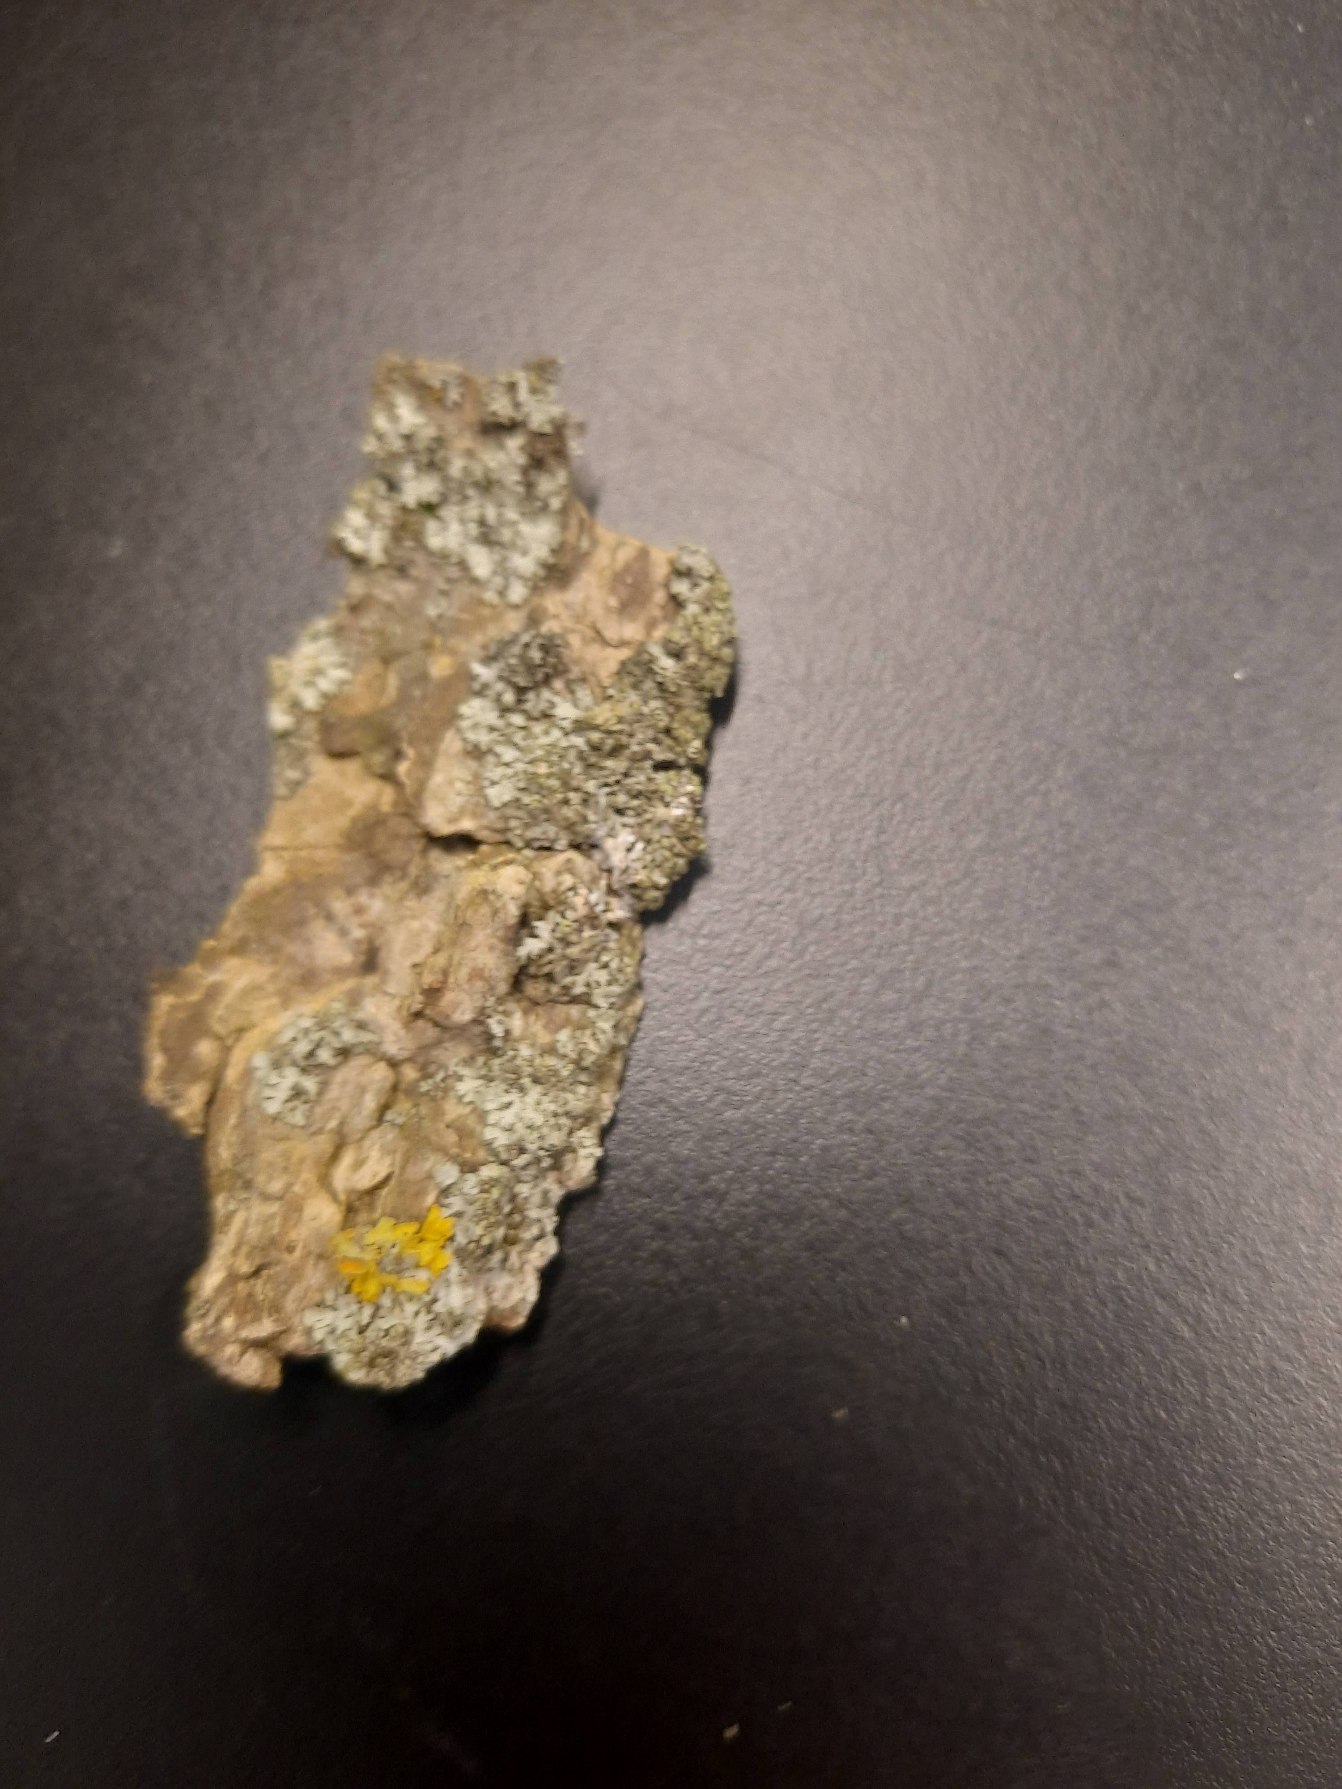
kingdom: Fungi
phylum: Ascomycota
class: Lecanoromycetes
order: Caliciales
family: Physciaceae
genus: Phaeophyscia
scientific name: Phaeophyscia orbicularis
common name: Grågrøn rosetlav
